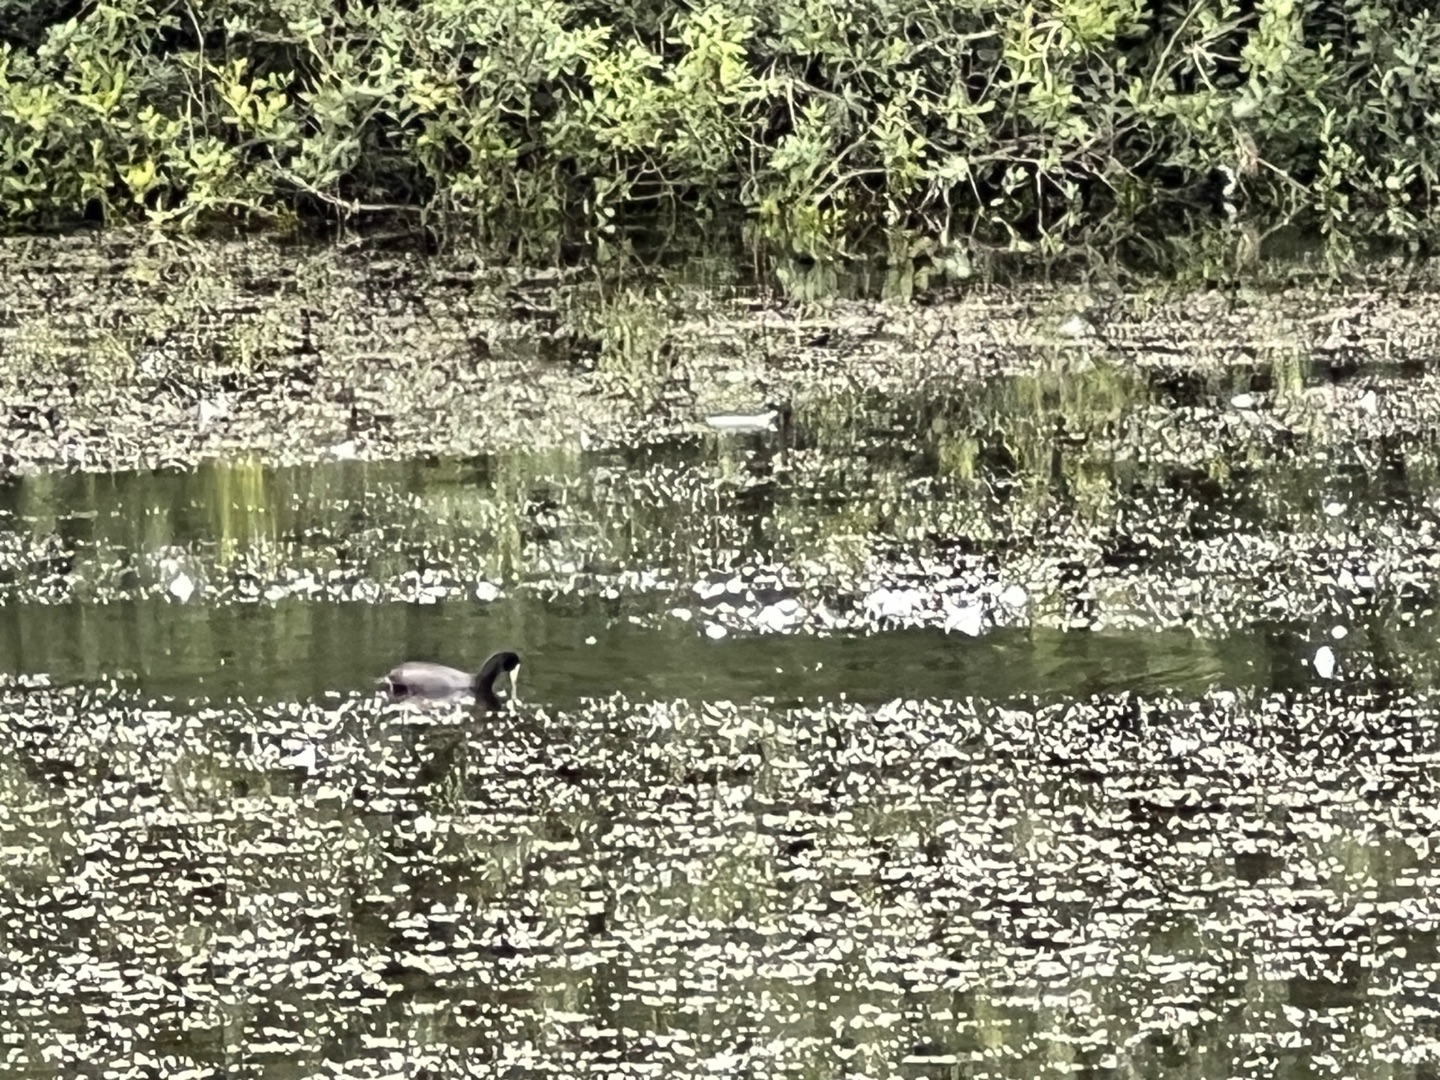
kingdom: Animalia
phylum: Chordata
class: Aves
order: Gruiformes
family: Rallidae
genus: Fulica
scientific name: Fulica atra
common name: Blishøne
